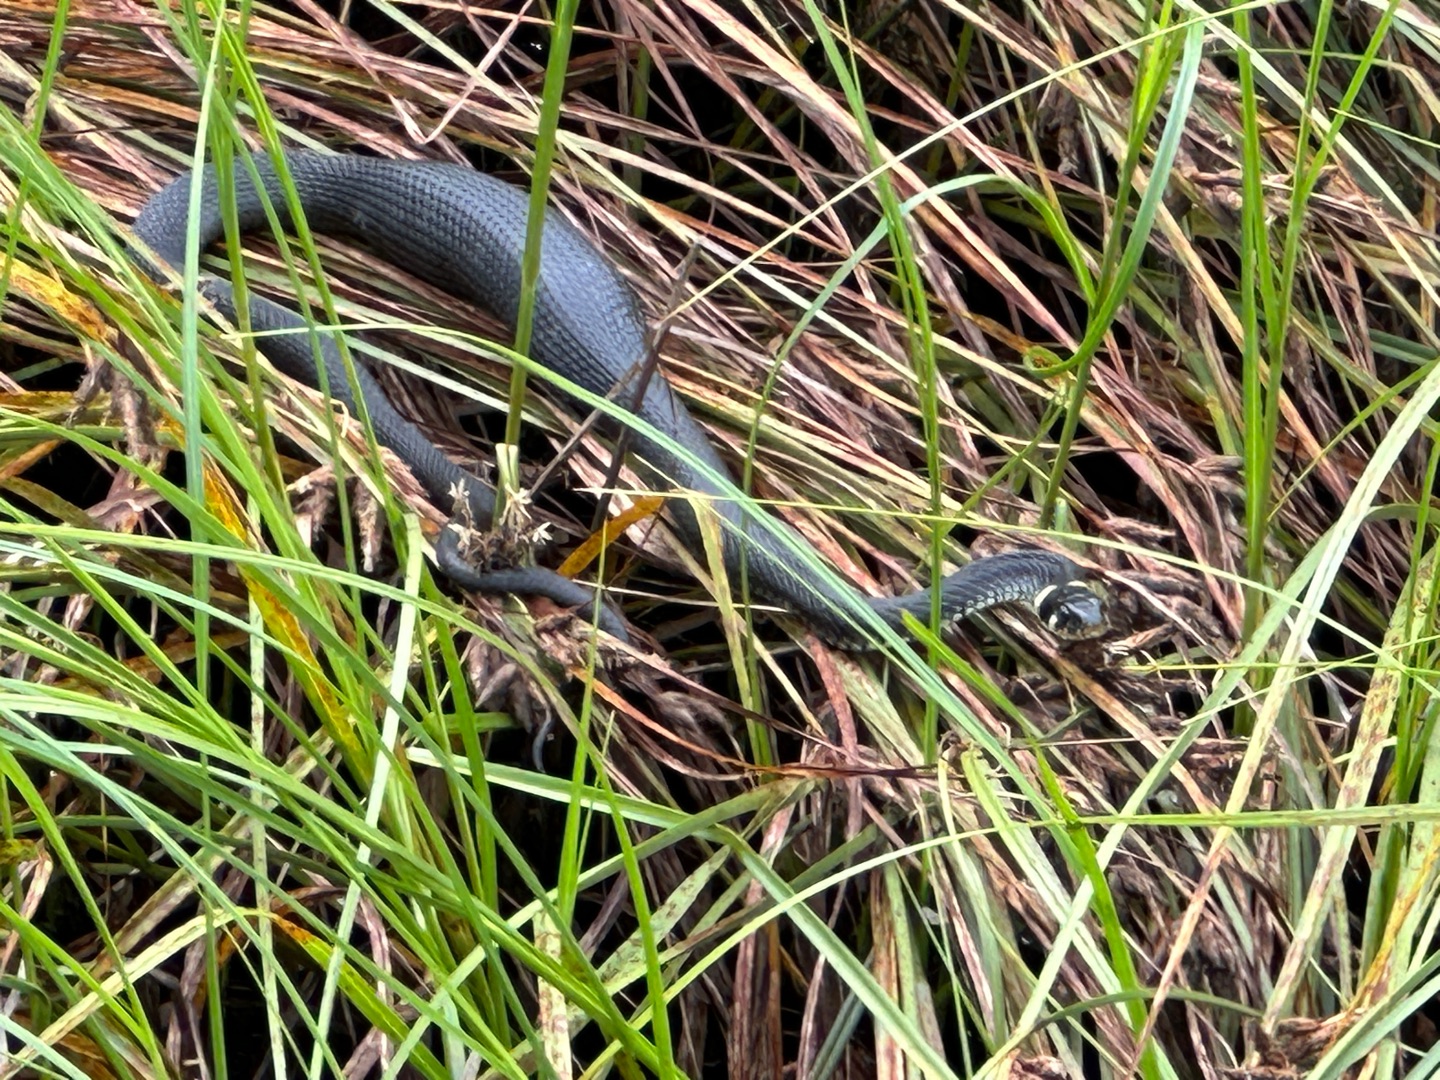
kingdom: Animalia
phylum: Chordata
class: Squamata
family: Colubridae
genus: Natrix
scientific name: Natrix natrix
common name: Snog
